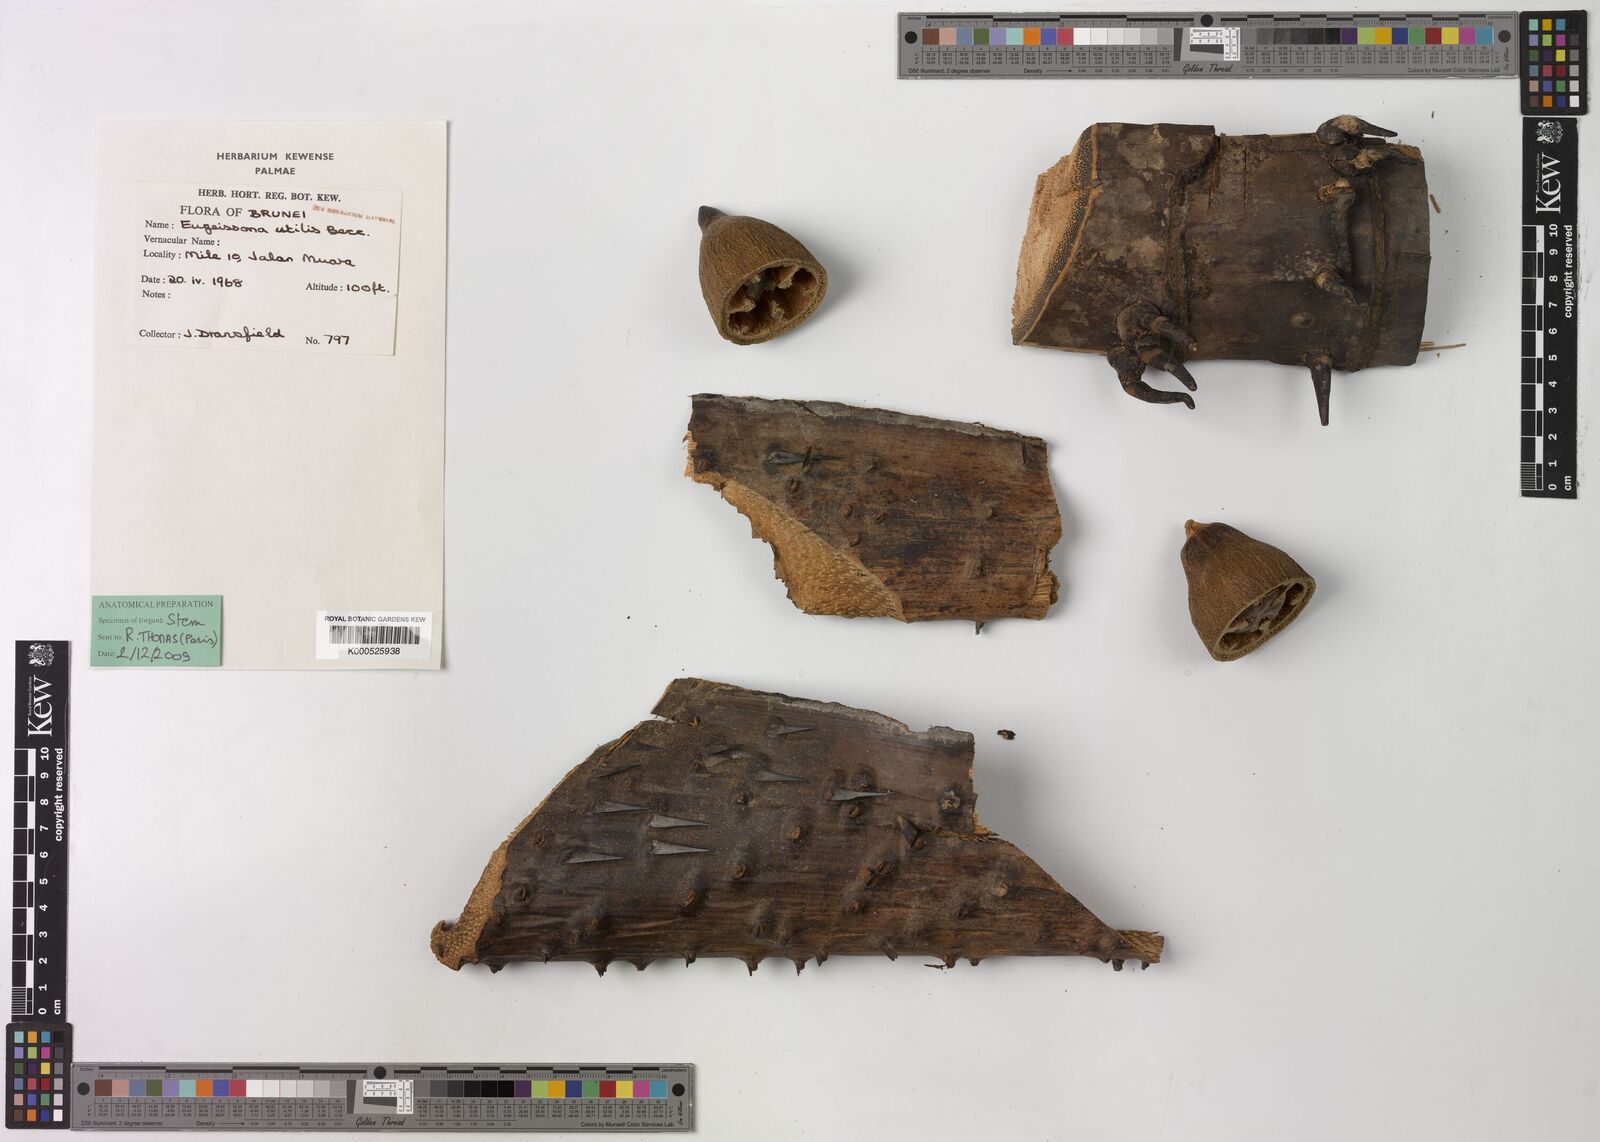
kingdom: Plantae
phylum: Tracheophyta
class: Liliopsida
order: Arecales
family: Arecaceae
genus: Eugeissona
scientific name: Eugeissona utilis
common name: Wild bornean sago palm
